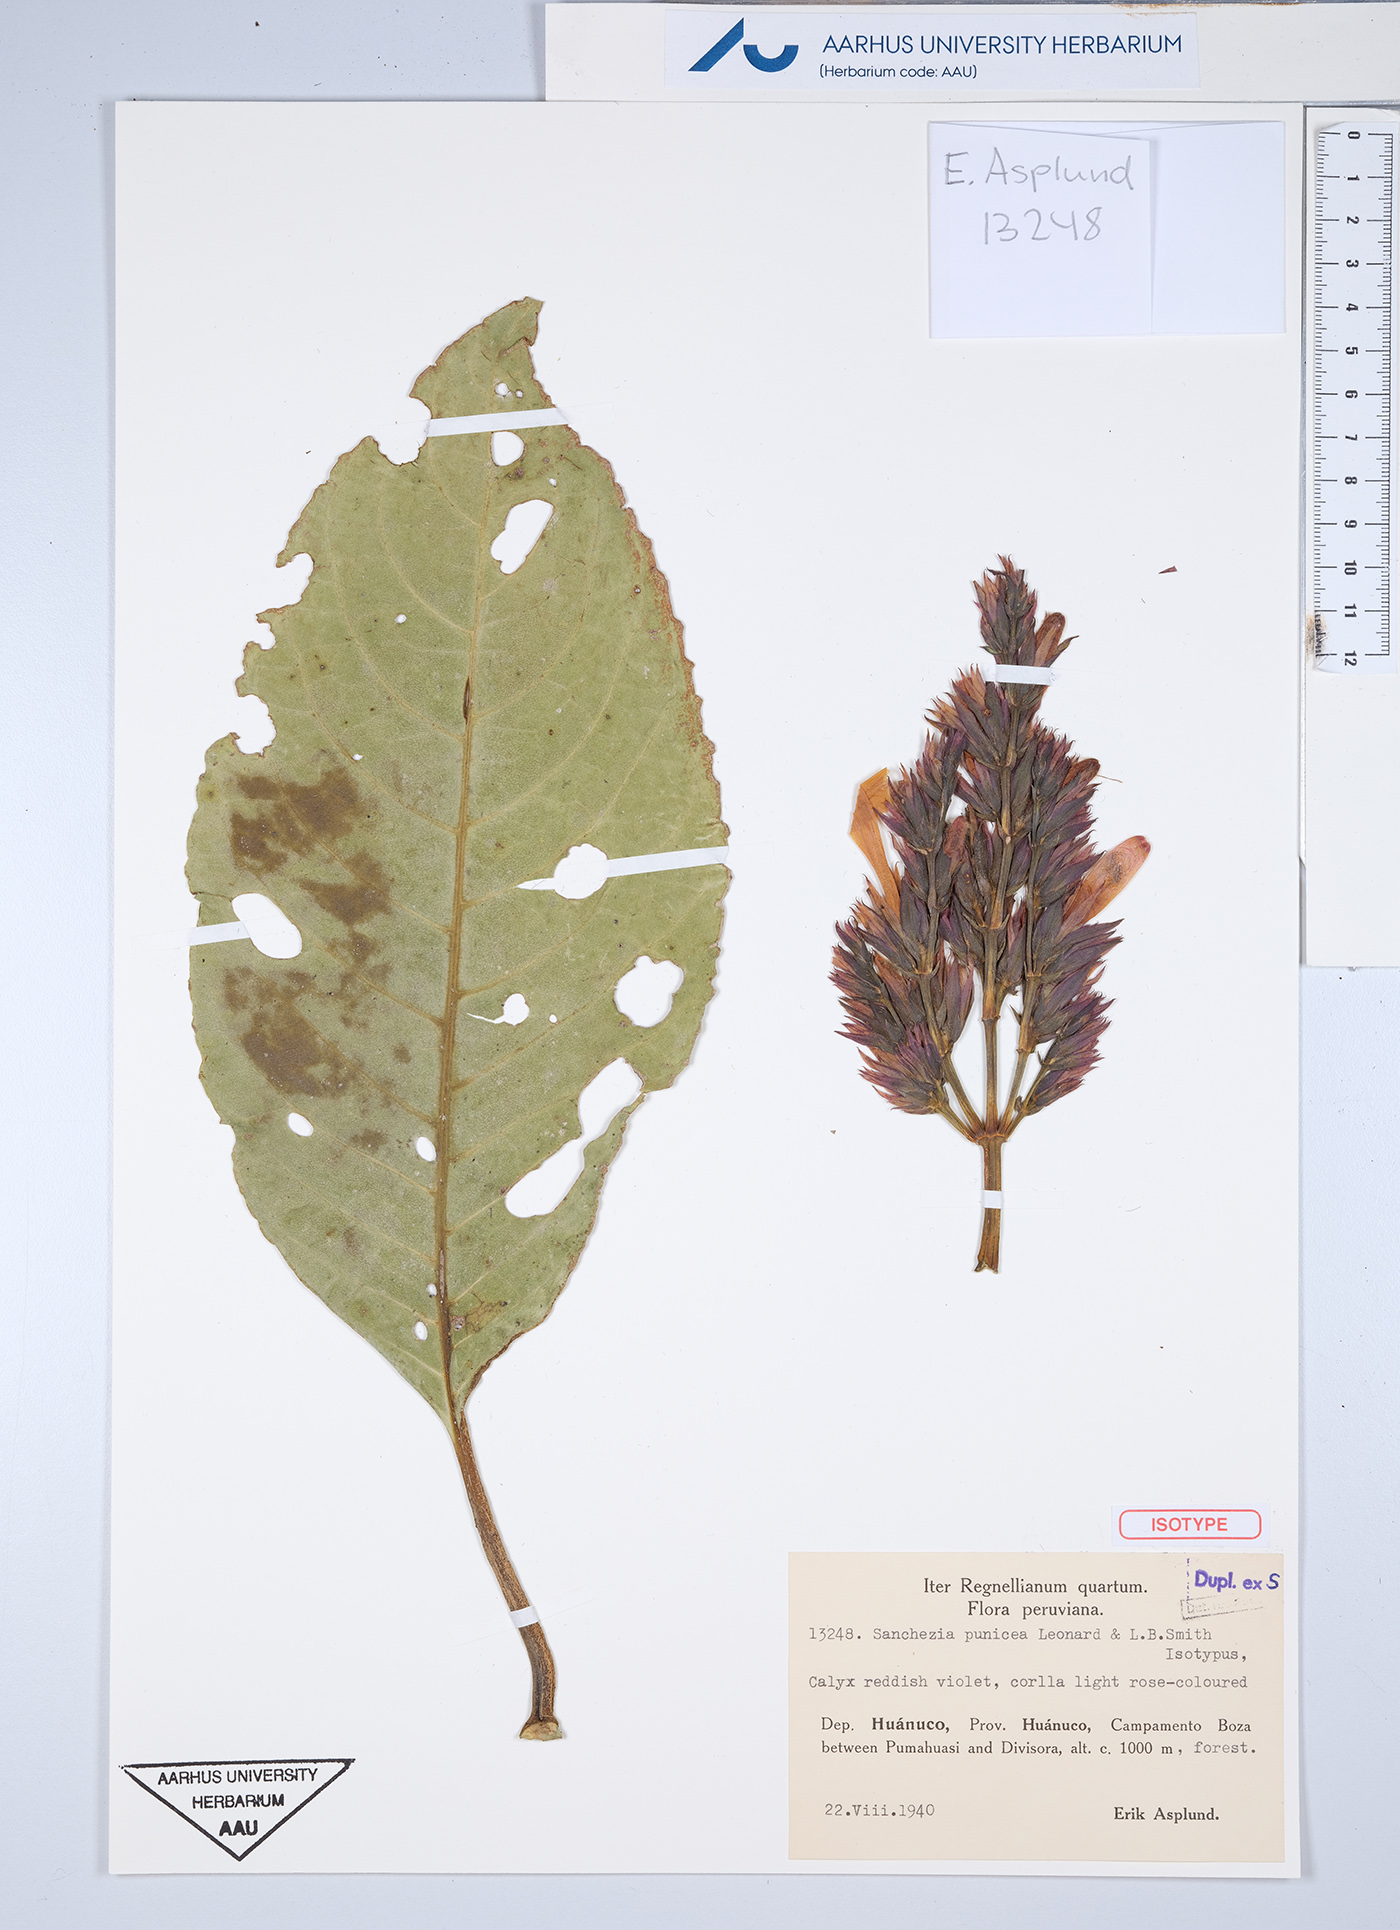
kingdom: Plantae
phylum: Tracheophyta
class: Magnoliopsida
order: Lamiales
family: Acanthaceae
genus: Sanchezia
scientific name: Sanchezia punicea
